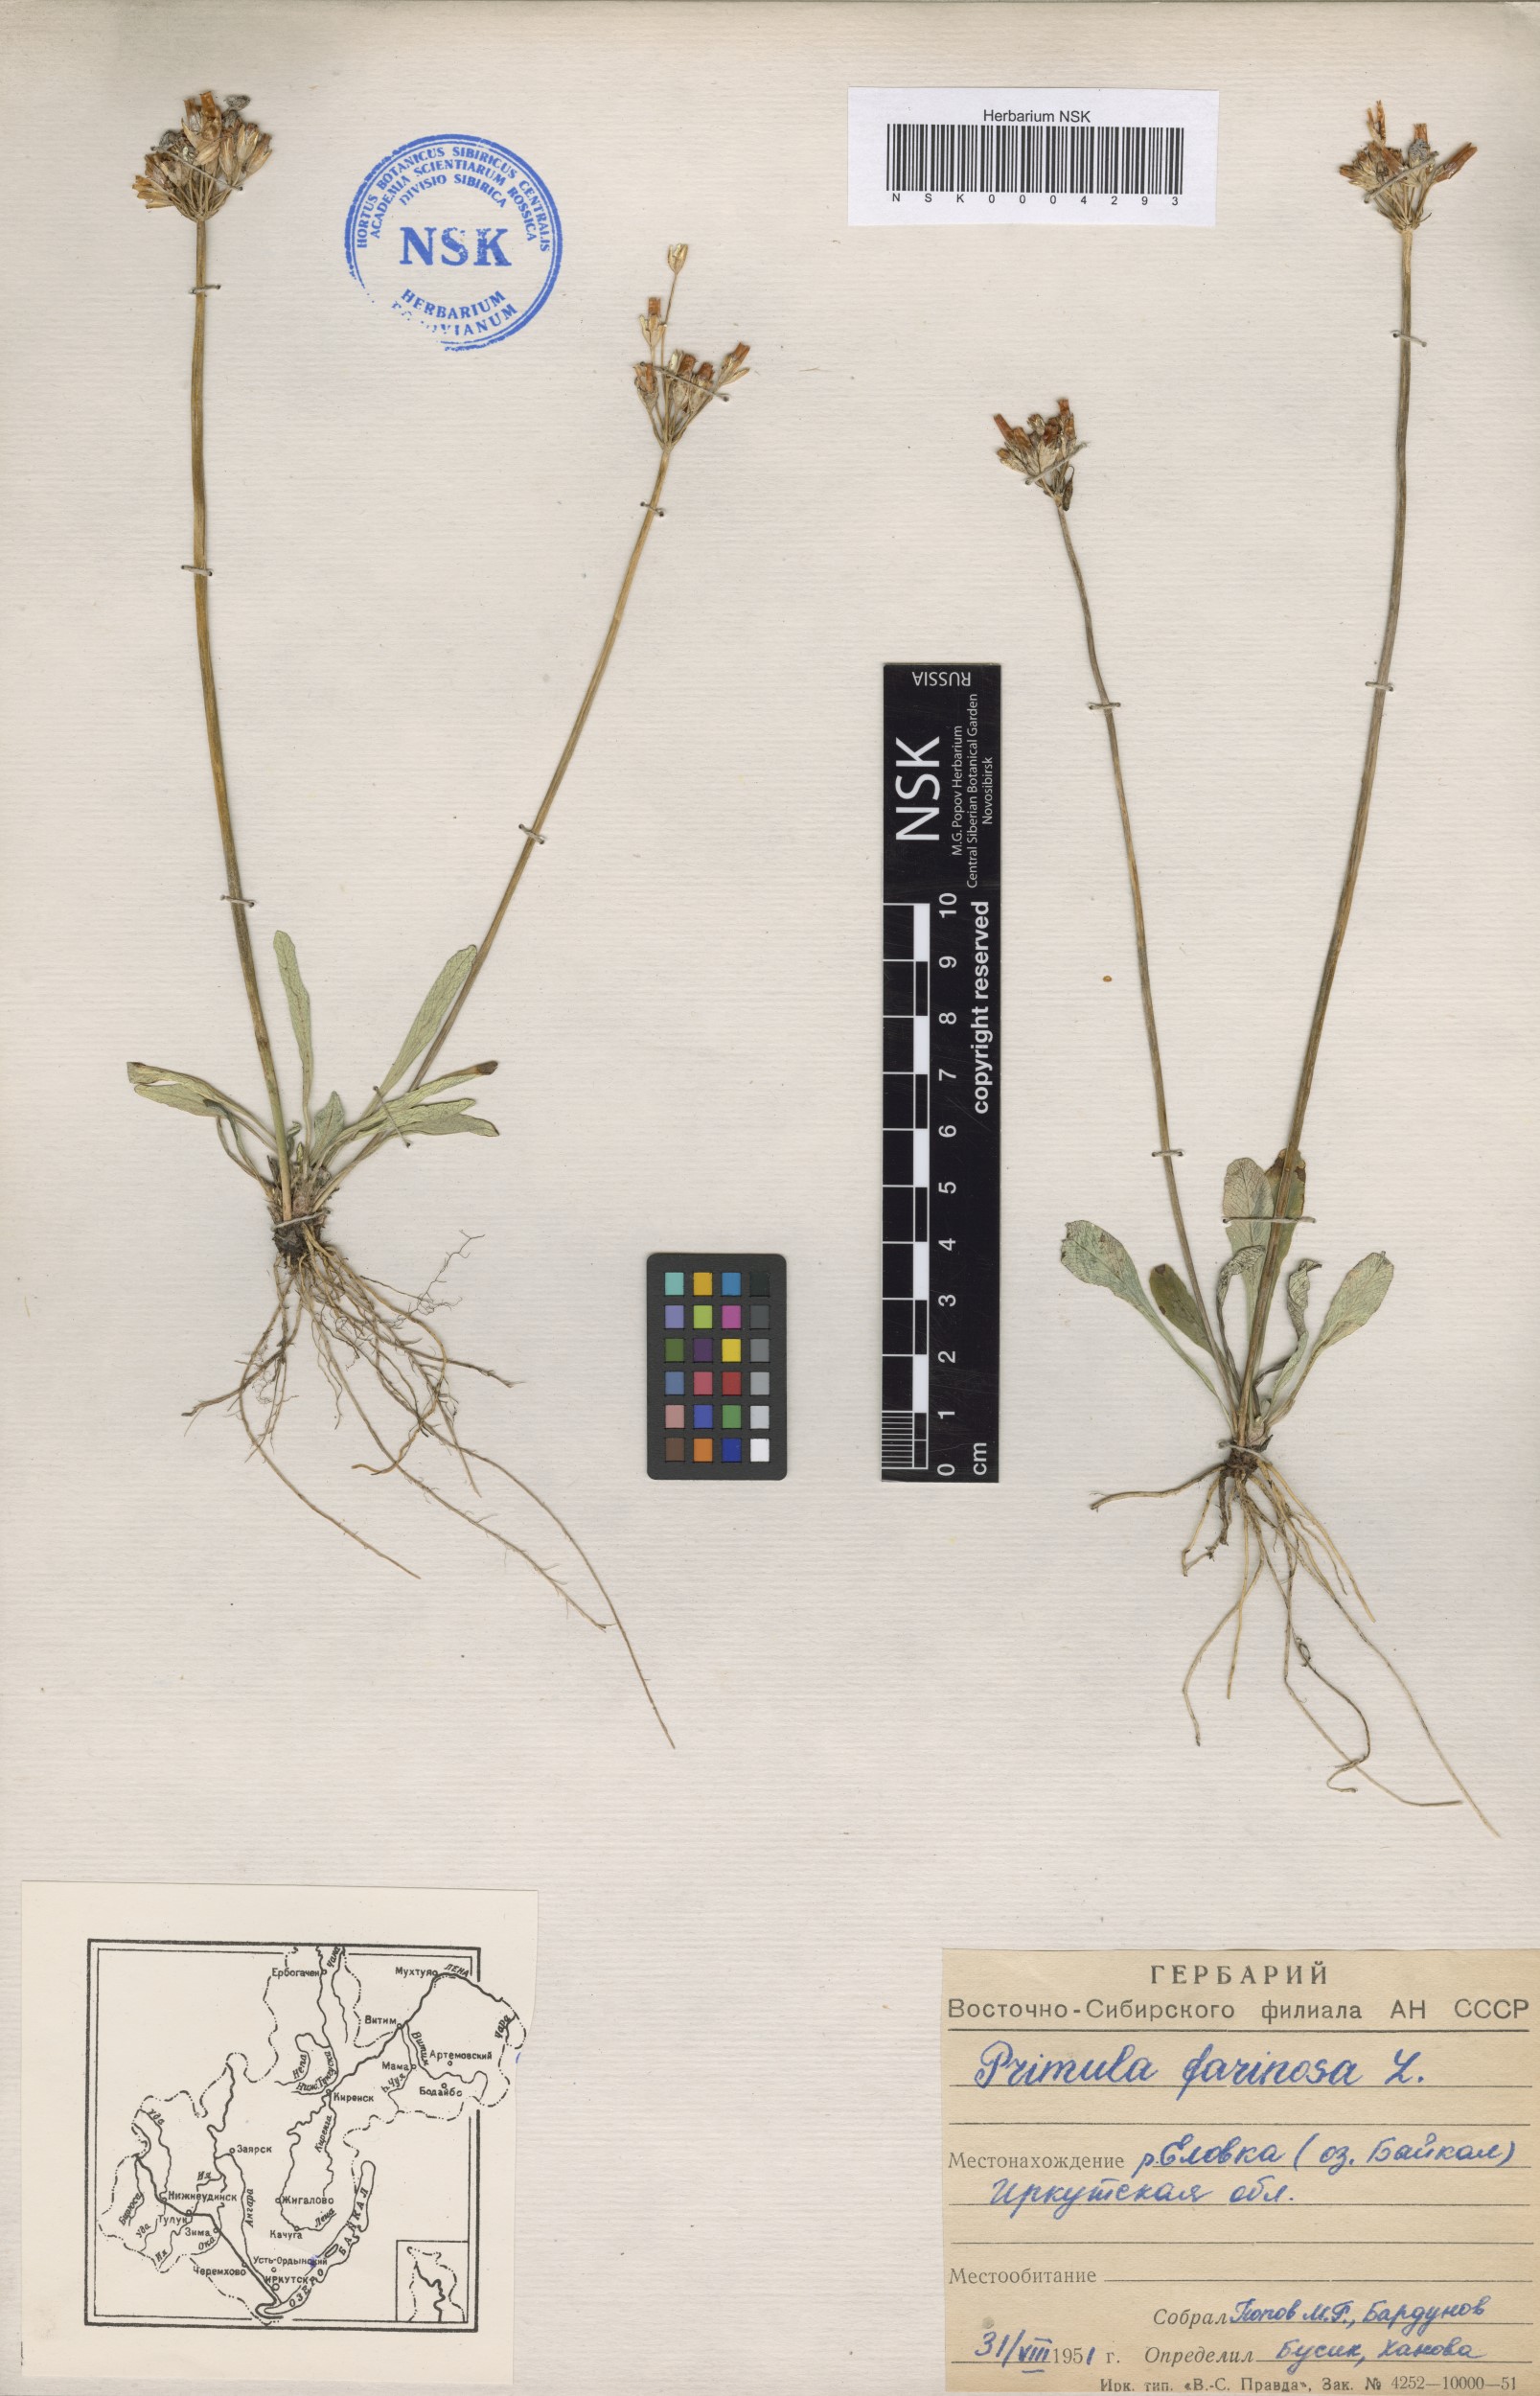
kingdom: Plantae
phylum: Tracheophyta
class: Magnoliopsida
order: Ericales
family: Primulaceae
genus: Primula
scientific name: Primula farinosa
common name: Bird's-eye primrose
